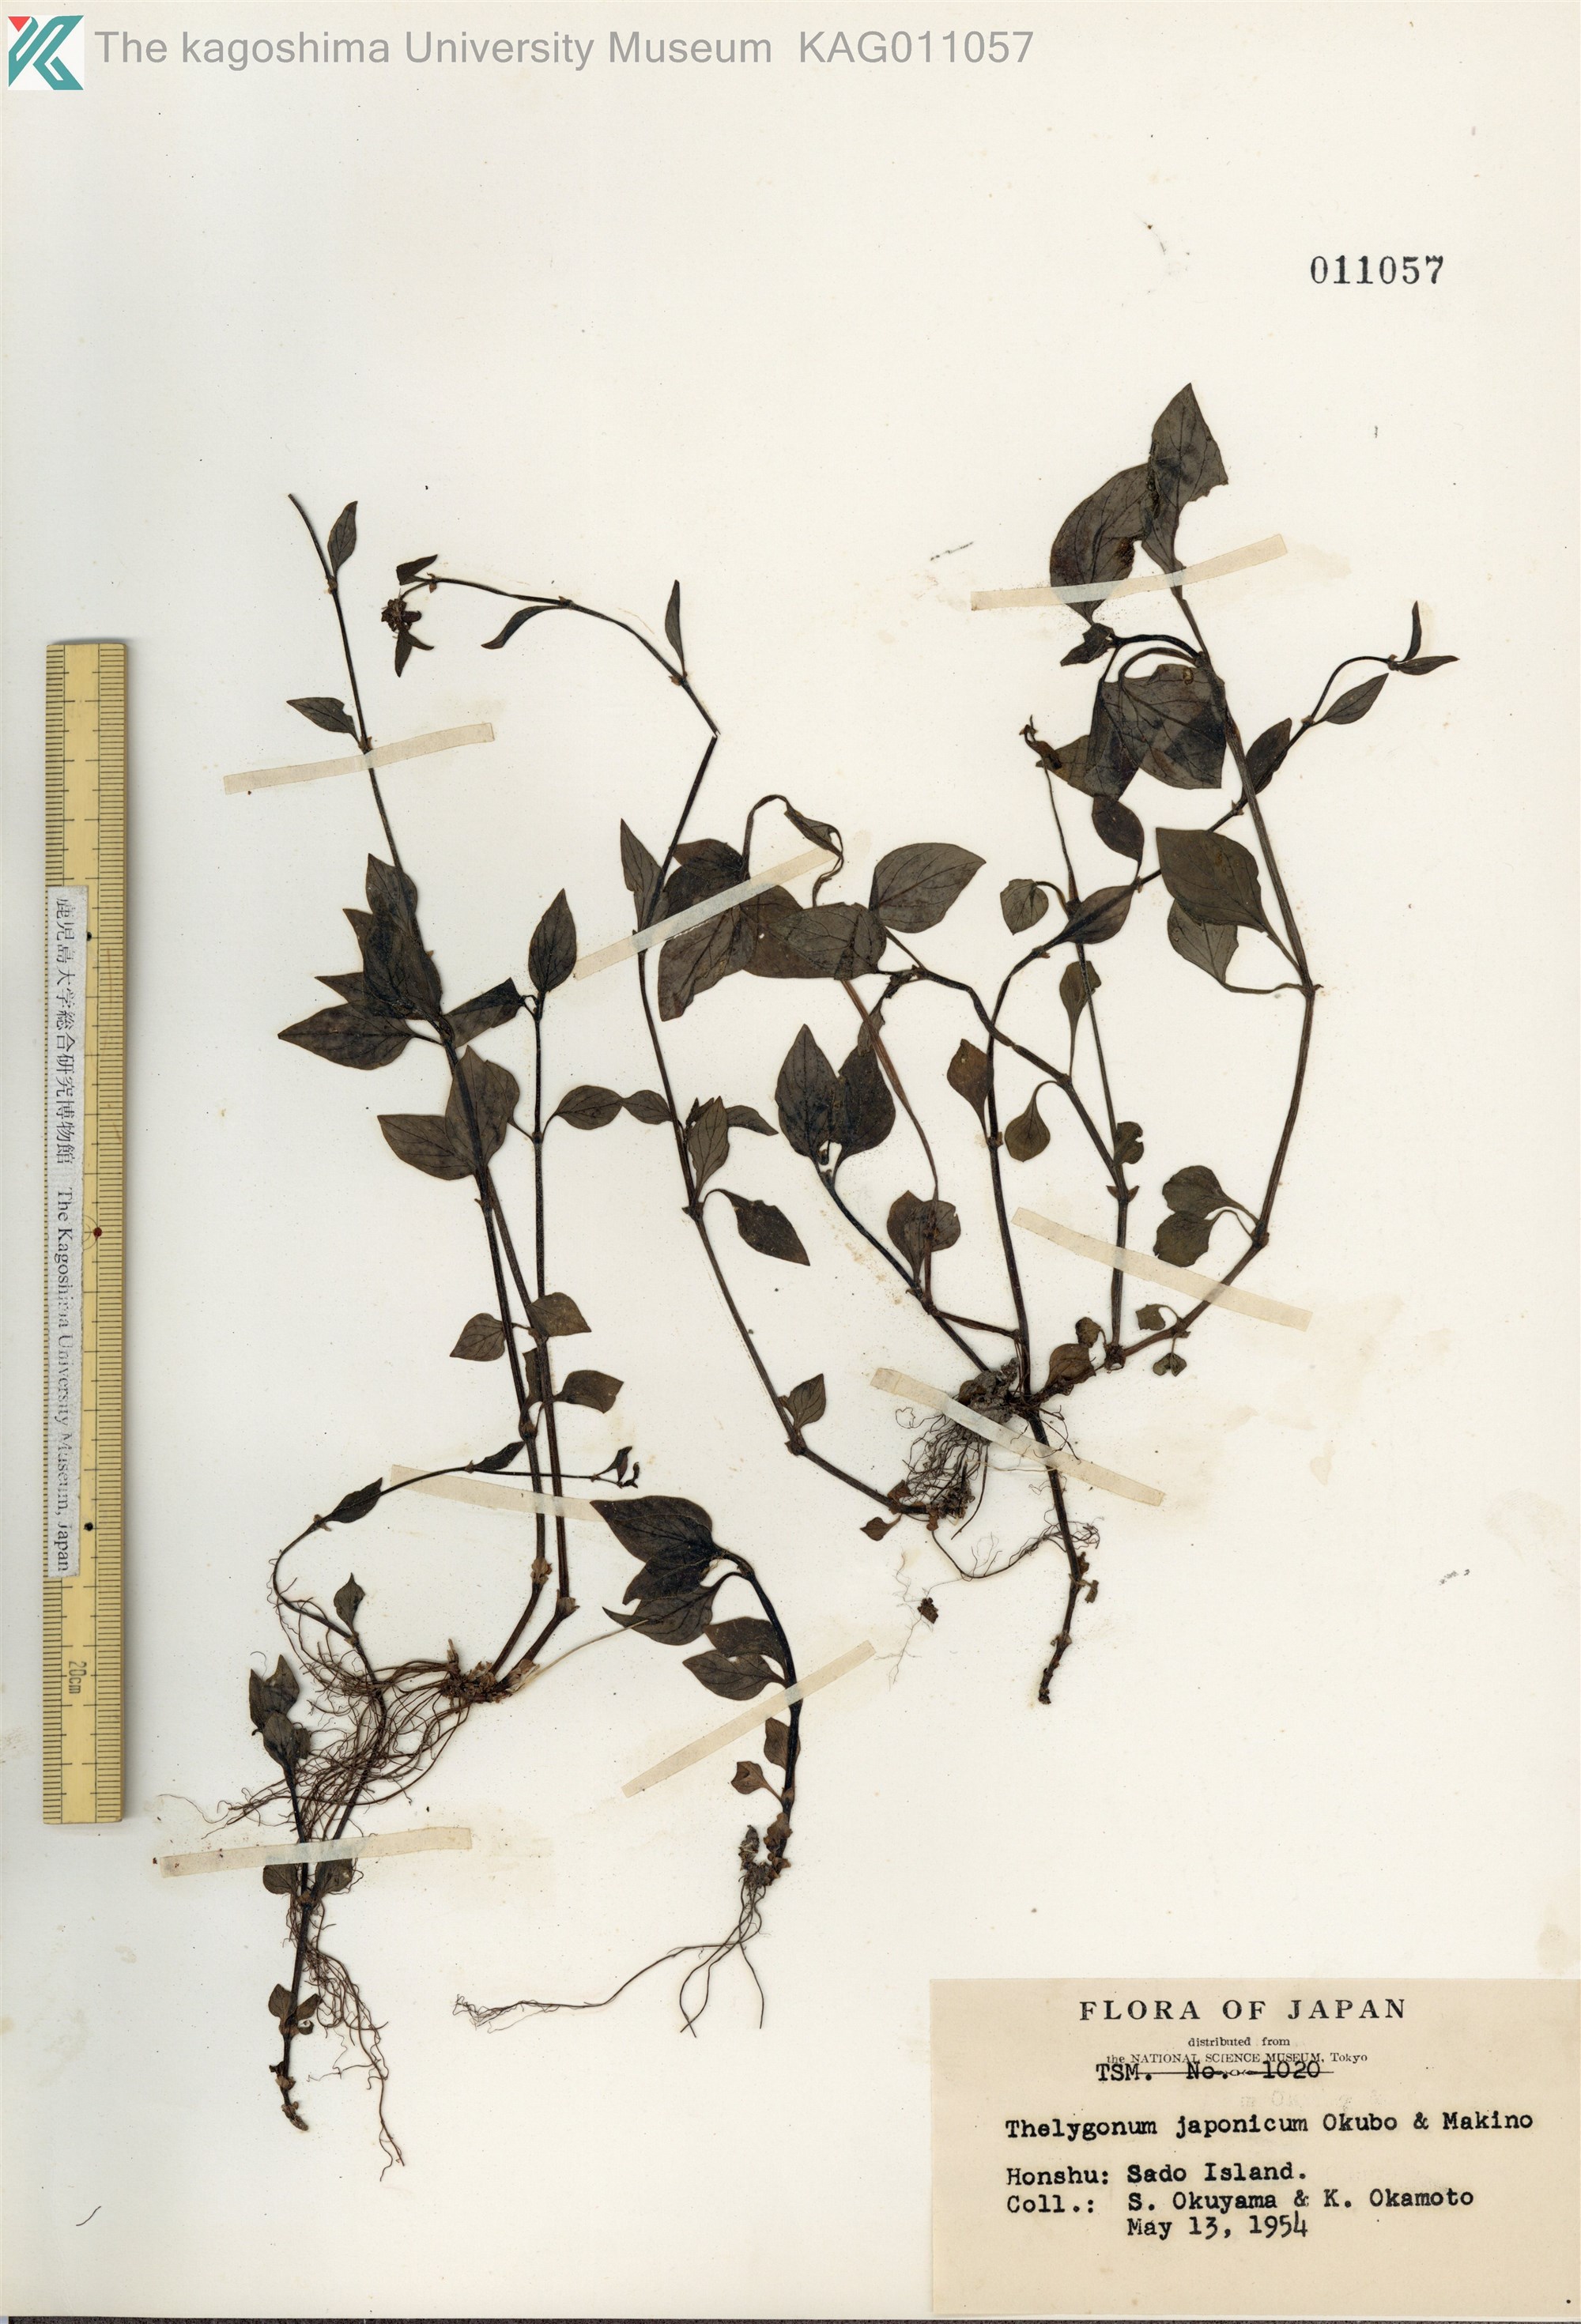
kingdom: Plantae
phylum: Tracheophyta
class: Magnoliopsida
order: Gentianales
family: Rubiaceae
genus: Theligonum
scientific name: Theligonum japonicum
